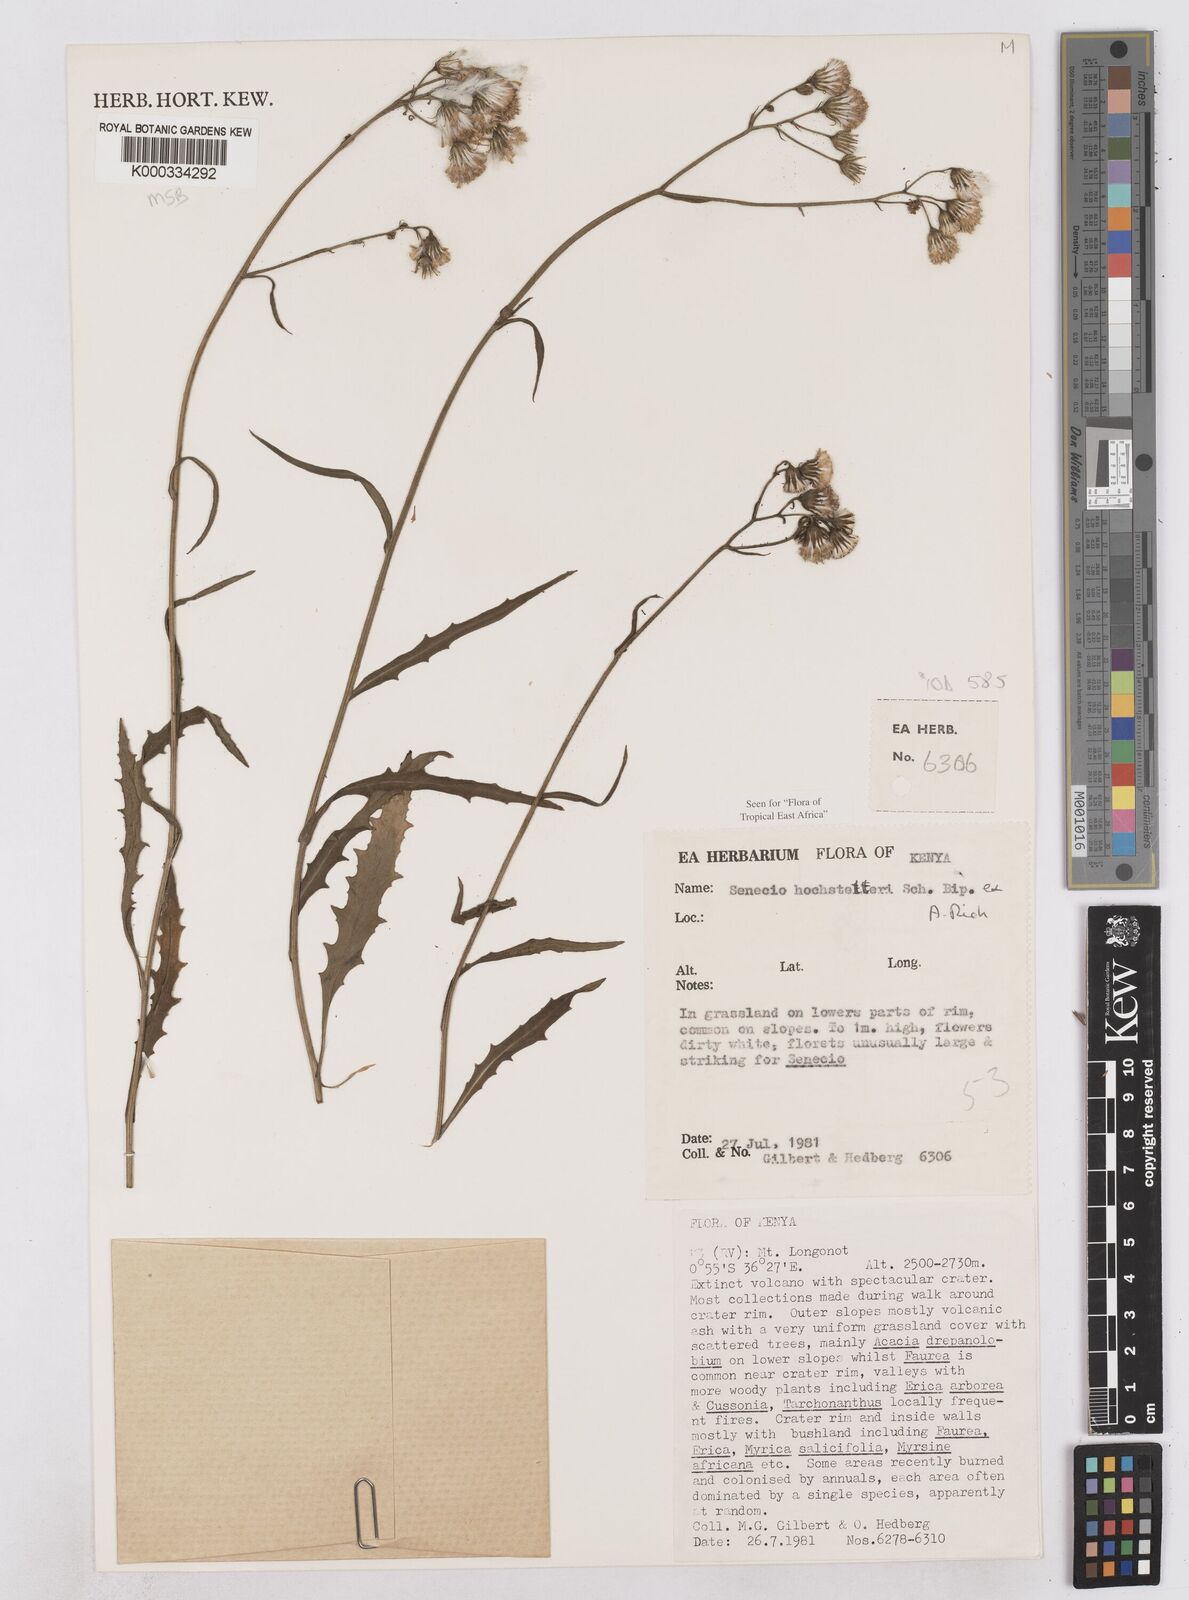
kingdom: Plantae
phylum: Tracheophyta
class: Magnoliopsida
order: Asterales
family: Asteraceae
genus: Senecio
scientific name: Senecio hochstetteri
